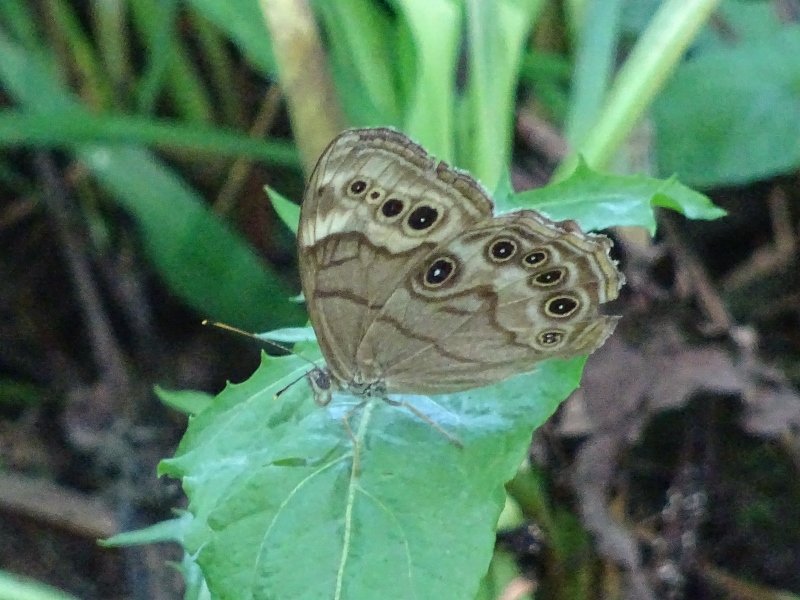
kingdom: Animalia
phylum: Arthropoda
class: Insecta
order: Lepidoptera
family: Nymphalidae
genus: Lethe
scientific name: Lethe anthedon
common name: Northern Pearly-Eye
